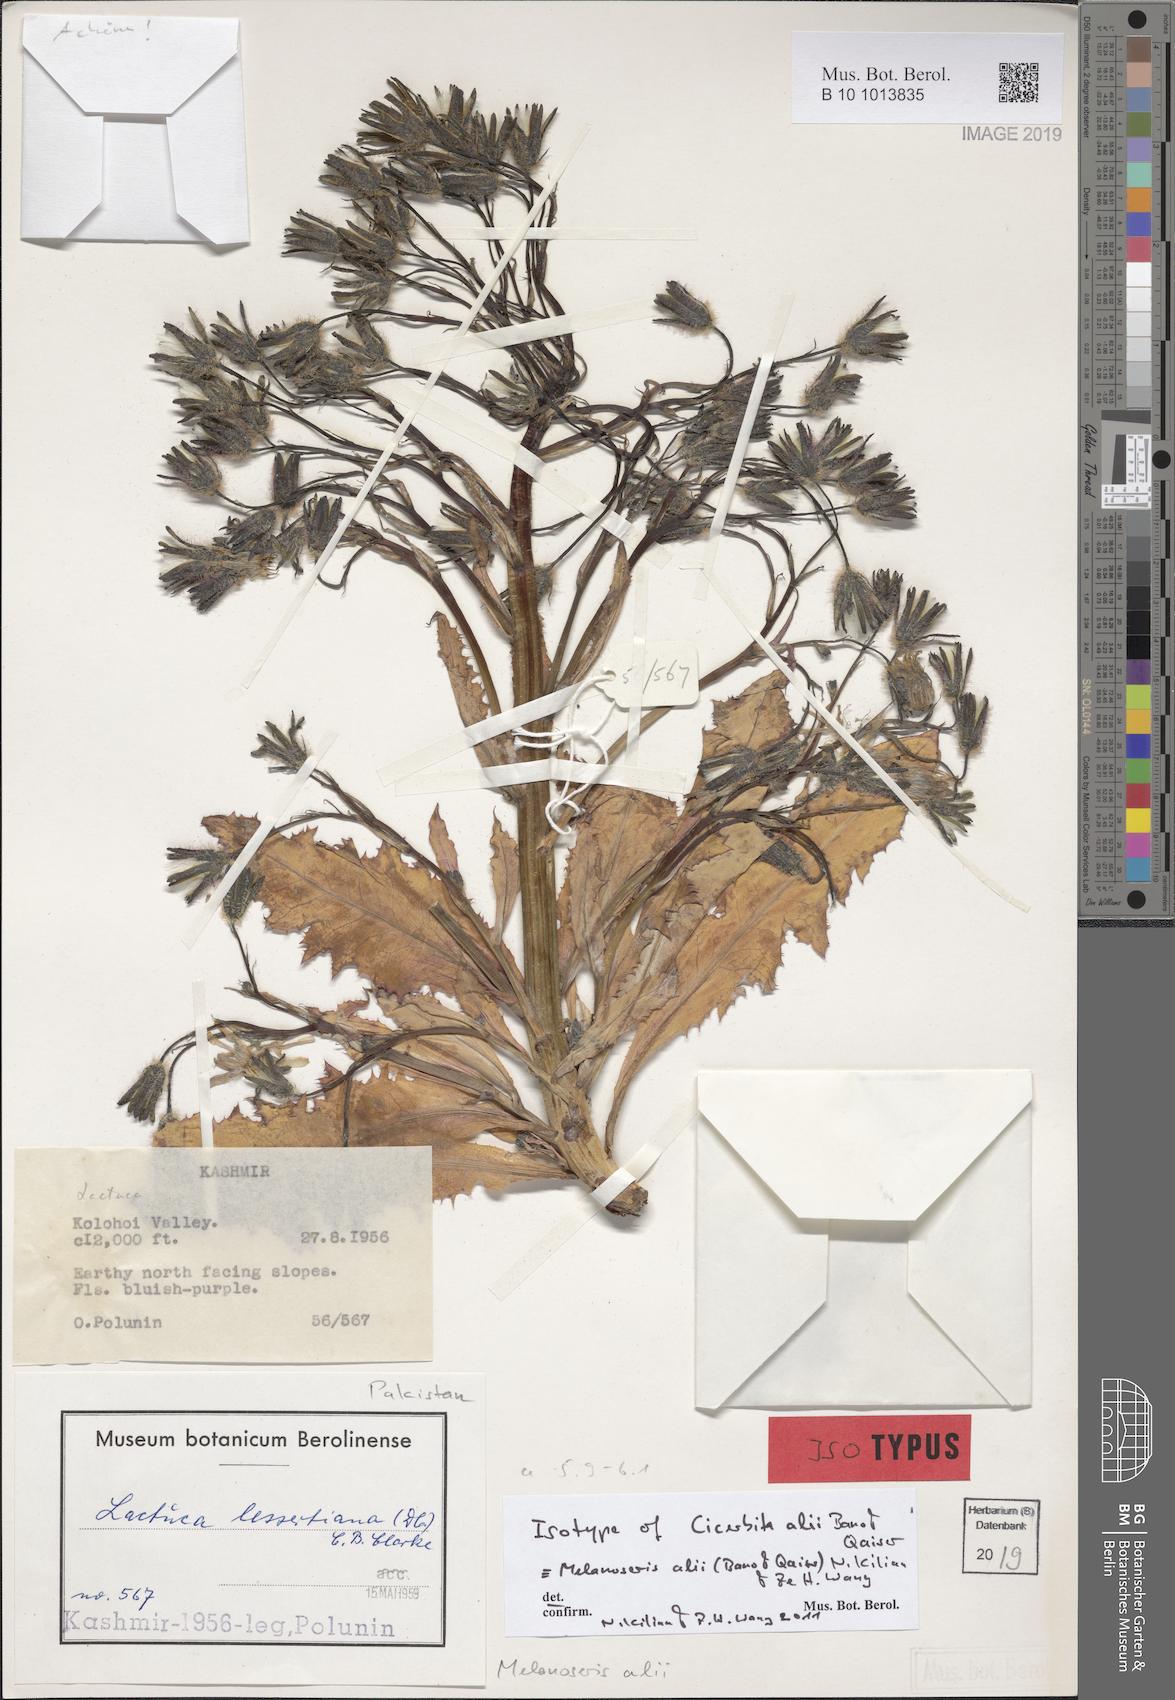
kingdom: Plantae
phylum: Tracheophyta
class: Magnoliopsida
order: Asterales
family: Asteraceae
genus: Melanoseris
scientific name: Melanoseris
